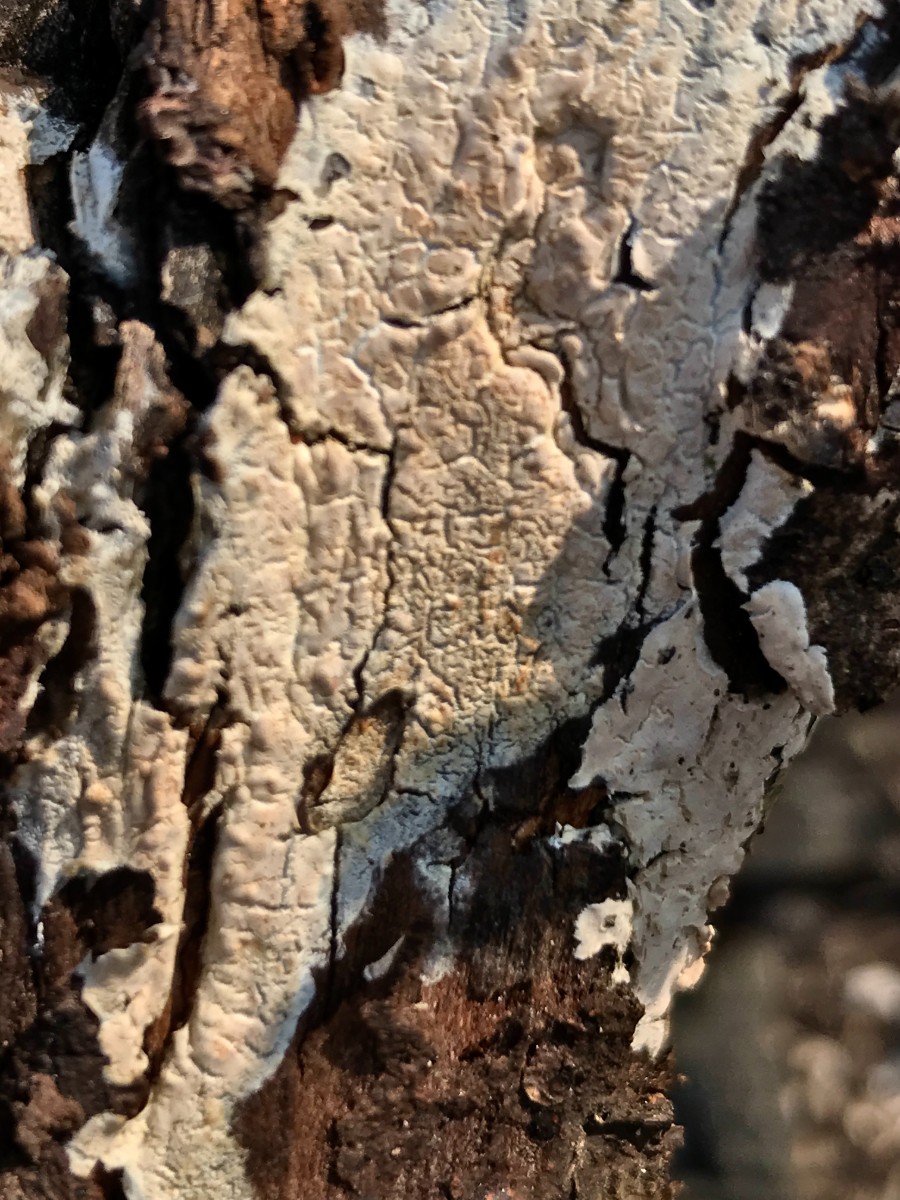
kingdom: Fungi
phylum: Basidiomycota
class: Agaricomycetes
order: Agaricales
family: Physalacriaceae
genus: Cylindrobasidium
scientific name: Cylindrobasidium evolvens
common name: sprækkehinde
